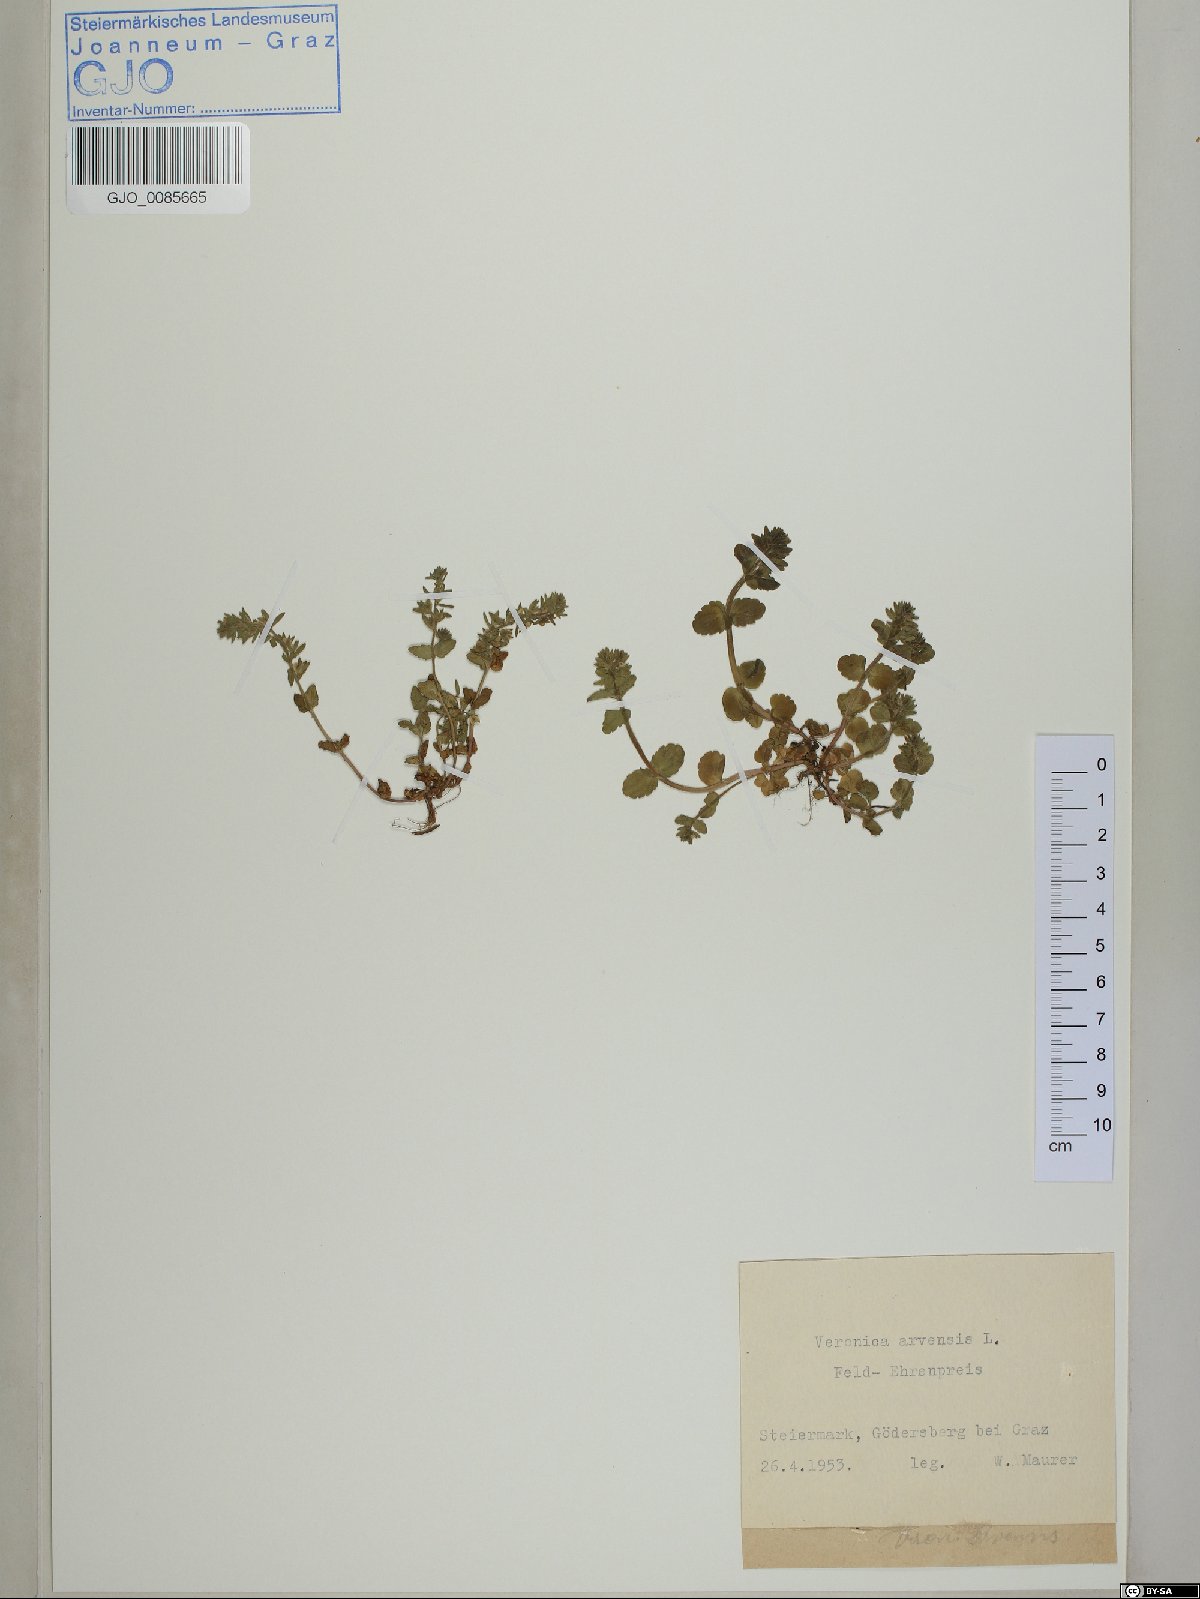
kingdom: Plantae
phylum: Tracheophyta
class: Magnoliopsida
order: Lamiales
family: Plantaginaceae
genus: Veronica
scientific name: Veronica arvensis
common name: Corn speedwell
